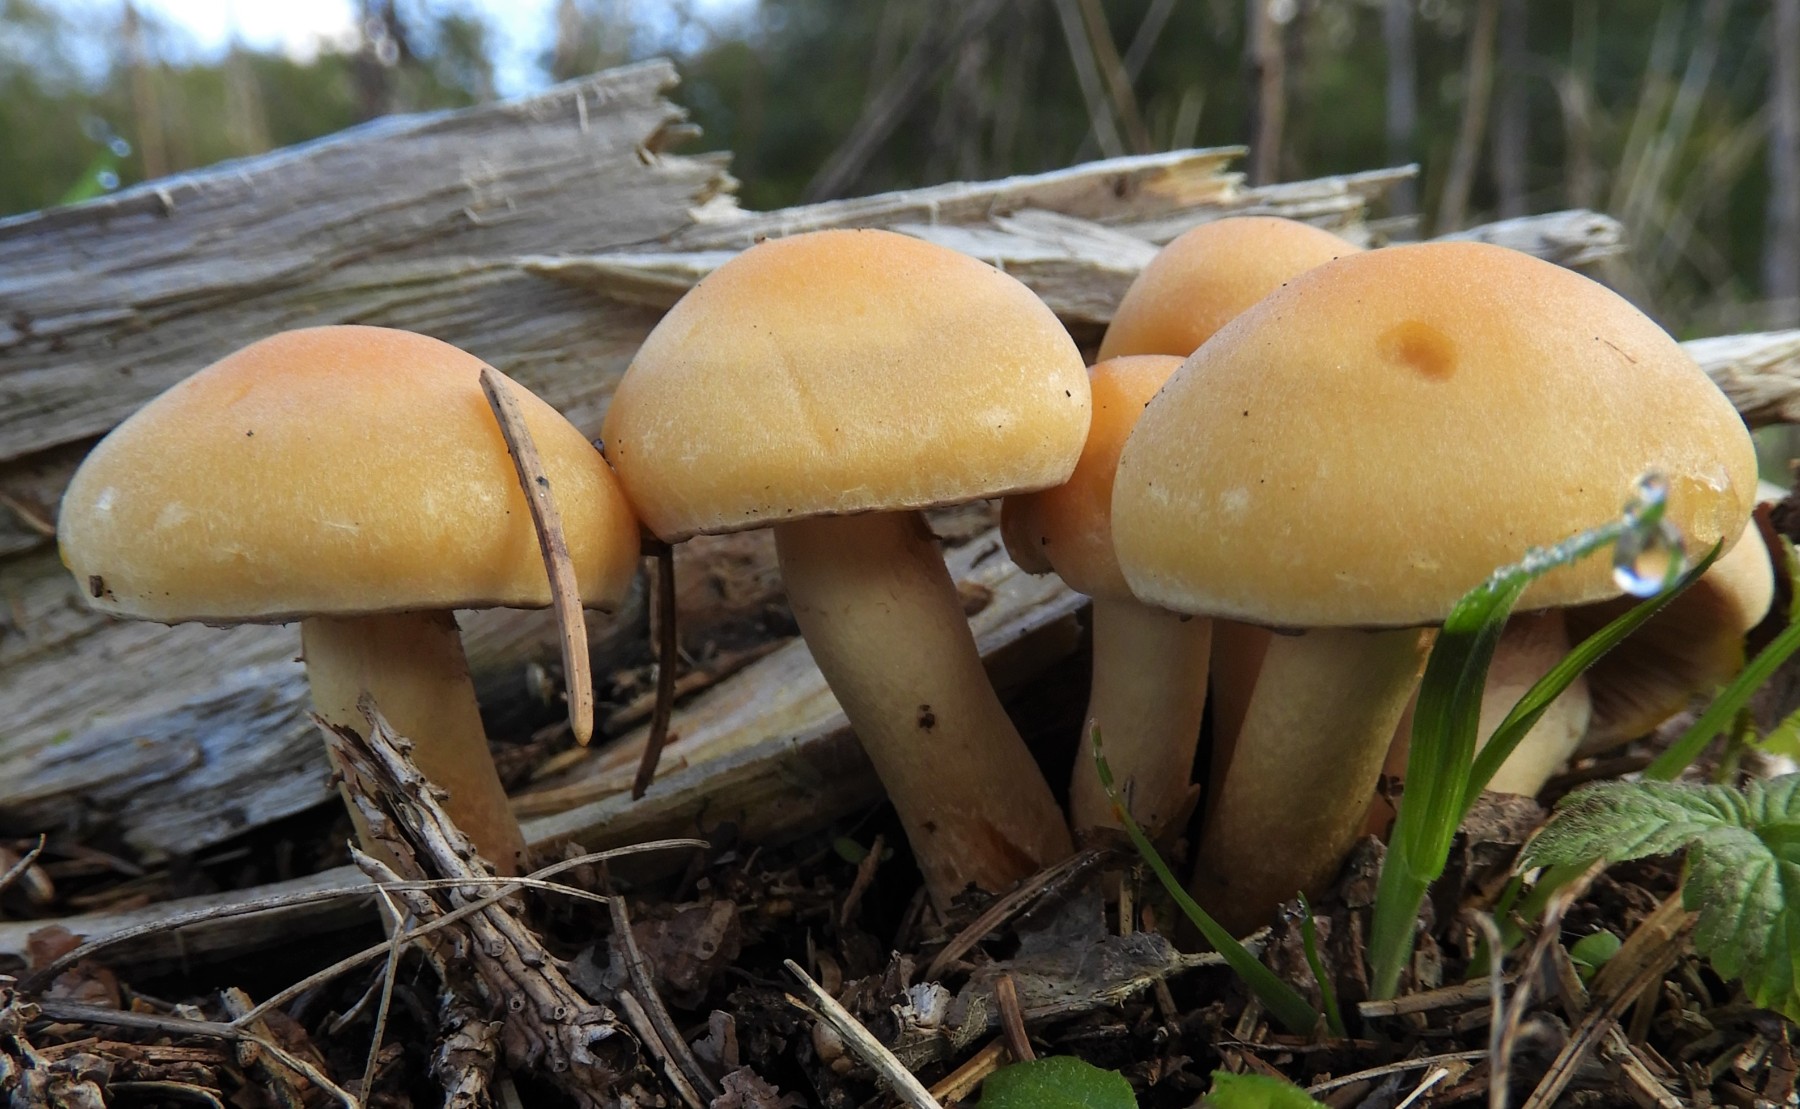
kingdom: Fungi
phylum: Basidiomycota
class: Agaricomycetes
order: Agaricales
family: Strophariaceae
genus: Hypholoma
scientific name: Hypholoma capnoides
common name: gran-svovlhat
